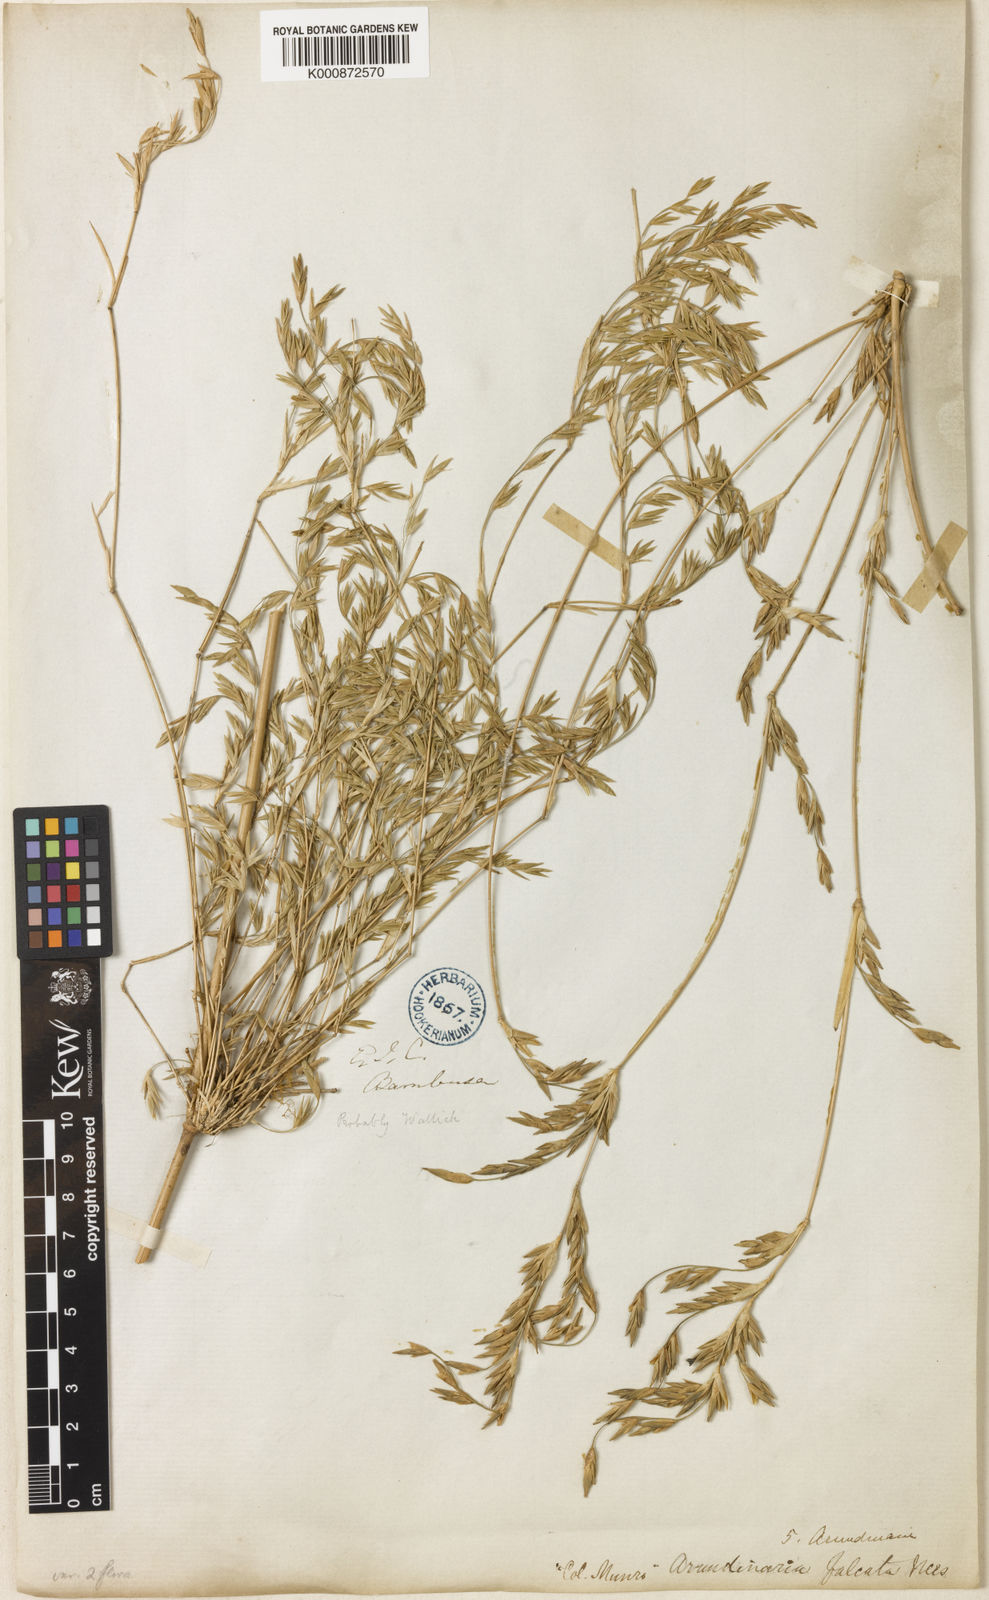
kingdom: Plantae
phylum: Tracheophyta
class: Liliopsida
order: Poales
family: Poaceae
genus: Drepanostachyum
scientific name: Drepanostachyum falcatum
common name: Himalayan bamboo
